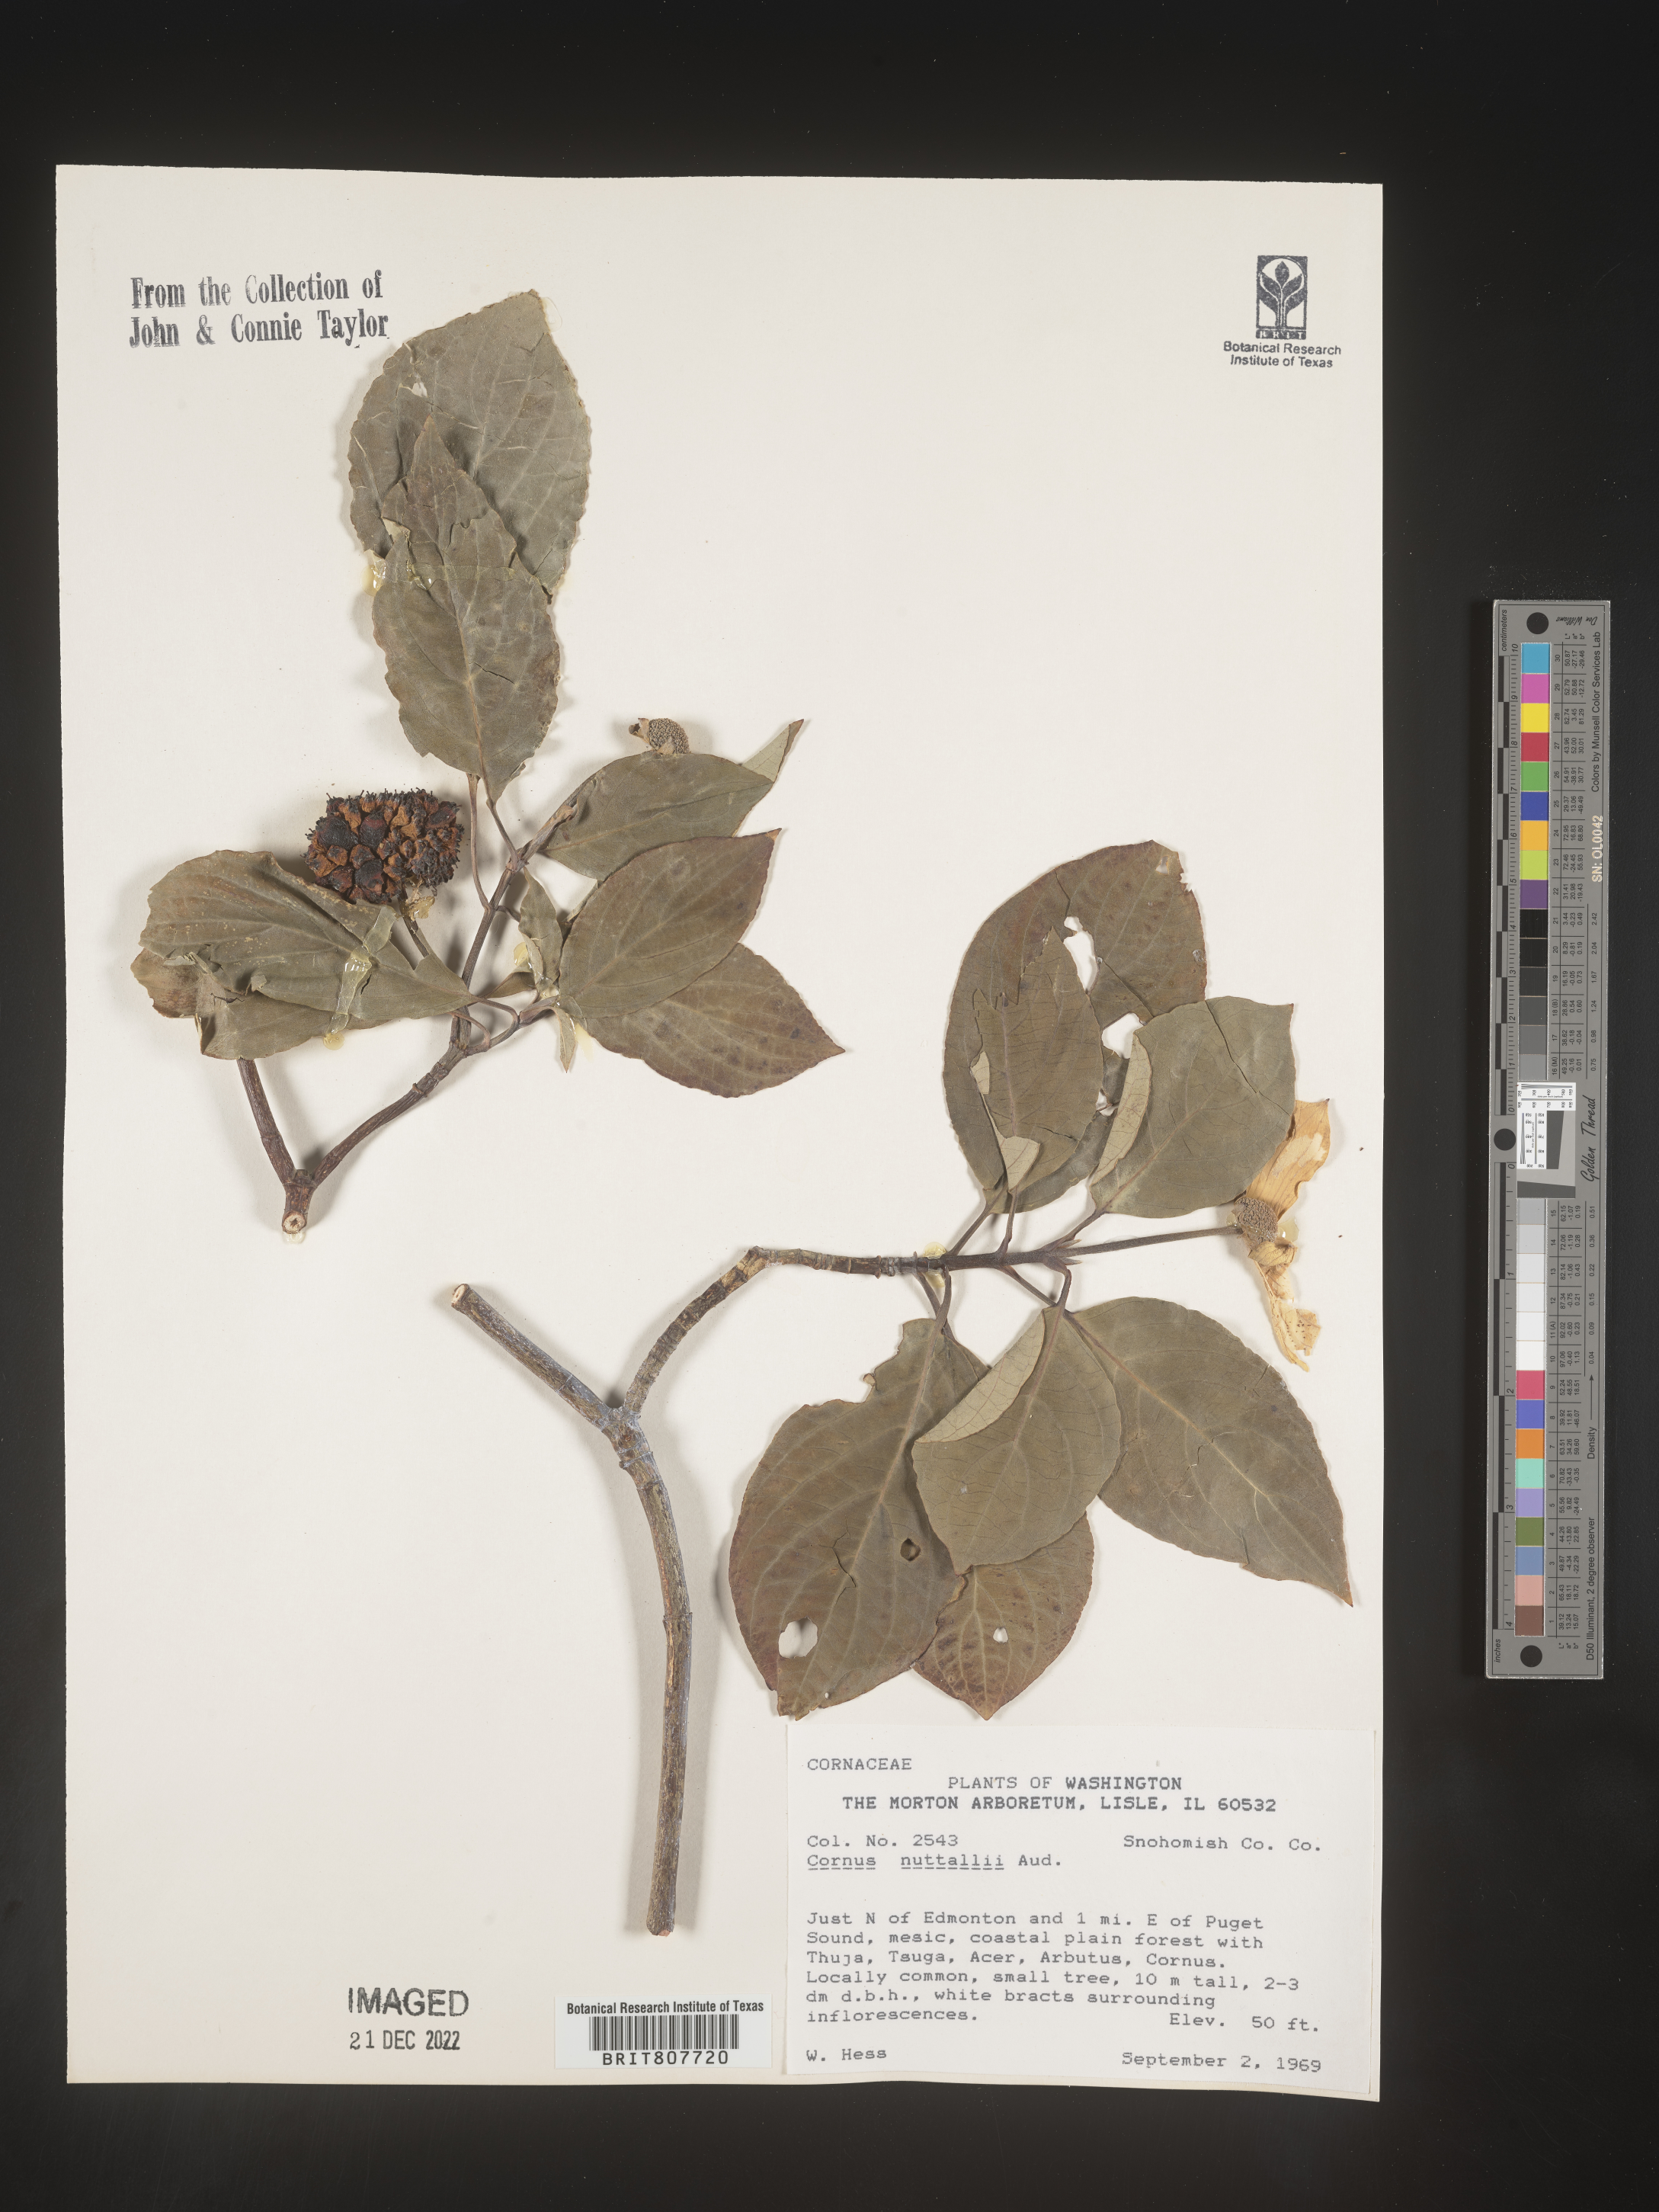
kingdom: Plantae
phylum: Tracheophyta
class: Magnoliopsida
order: Cornales
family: Cornaceae
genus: Cornus
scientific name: Cornus nuttallii
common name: Pacific dogwood
